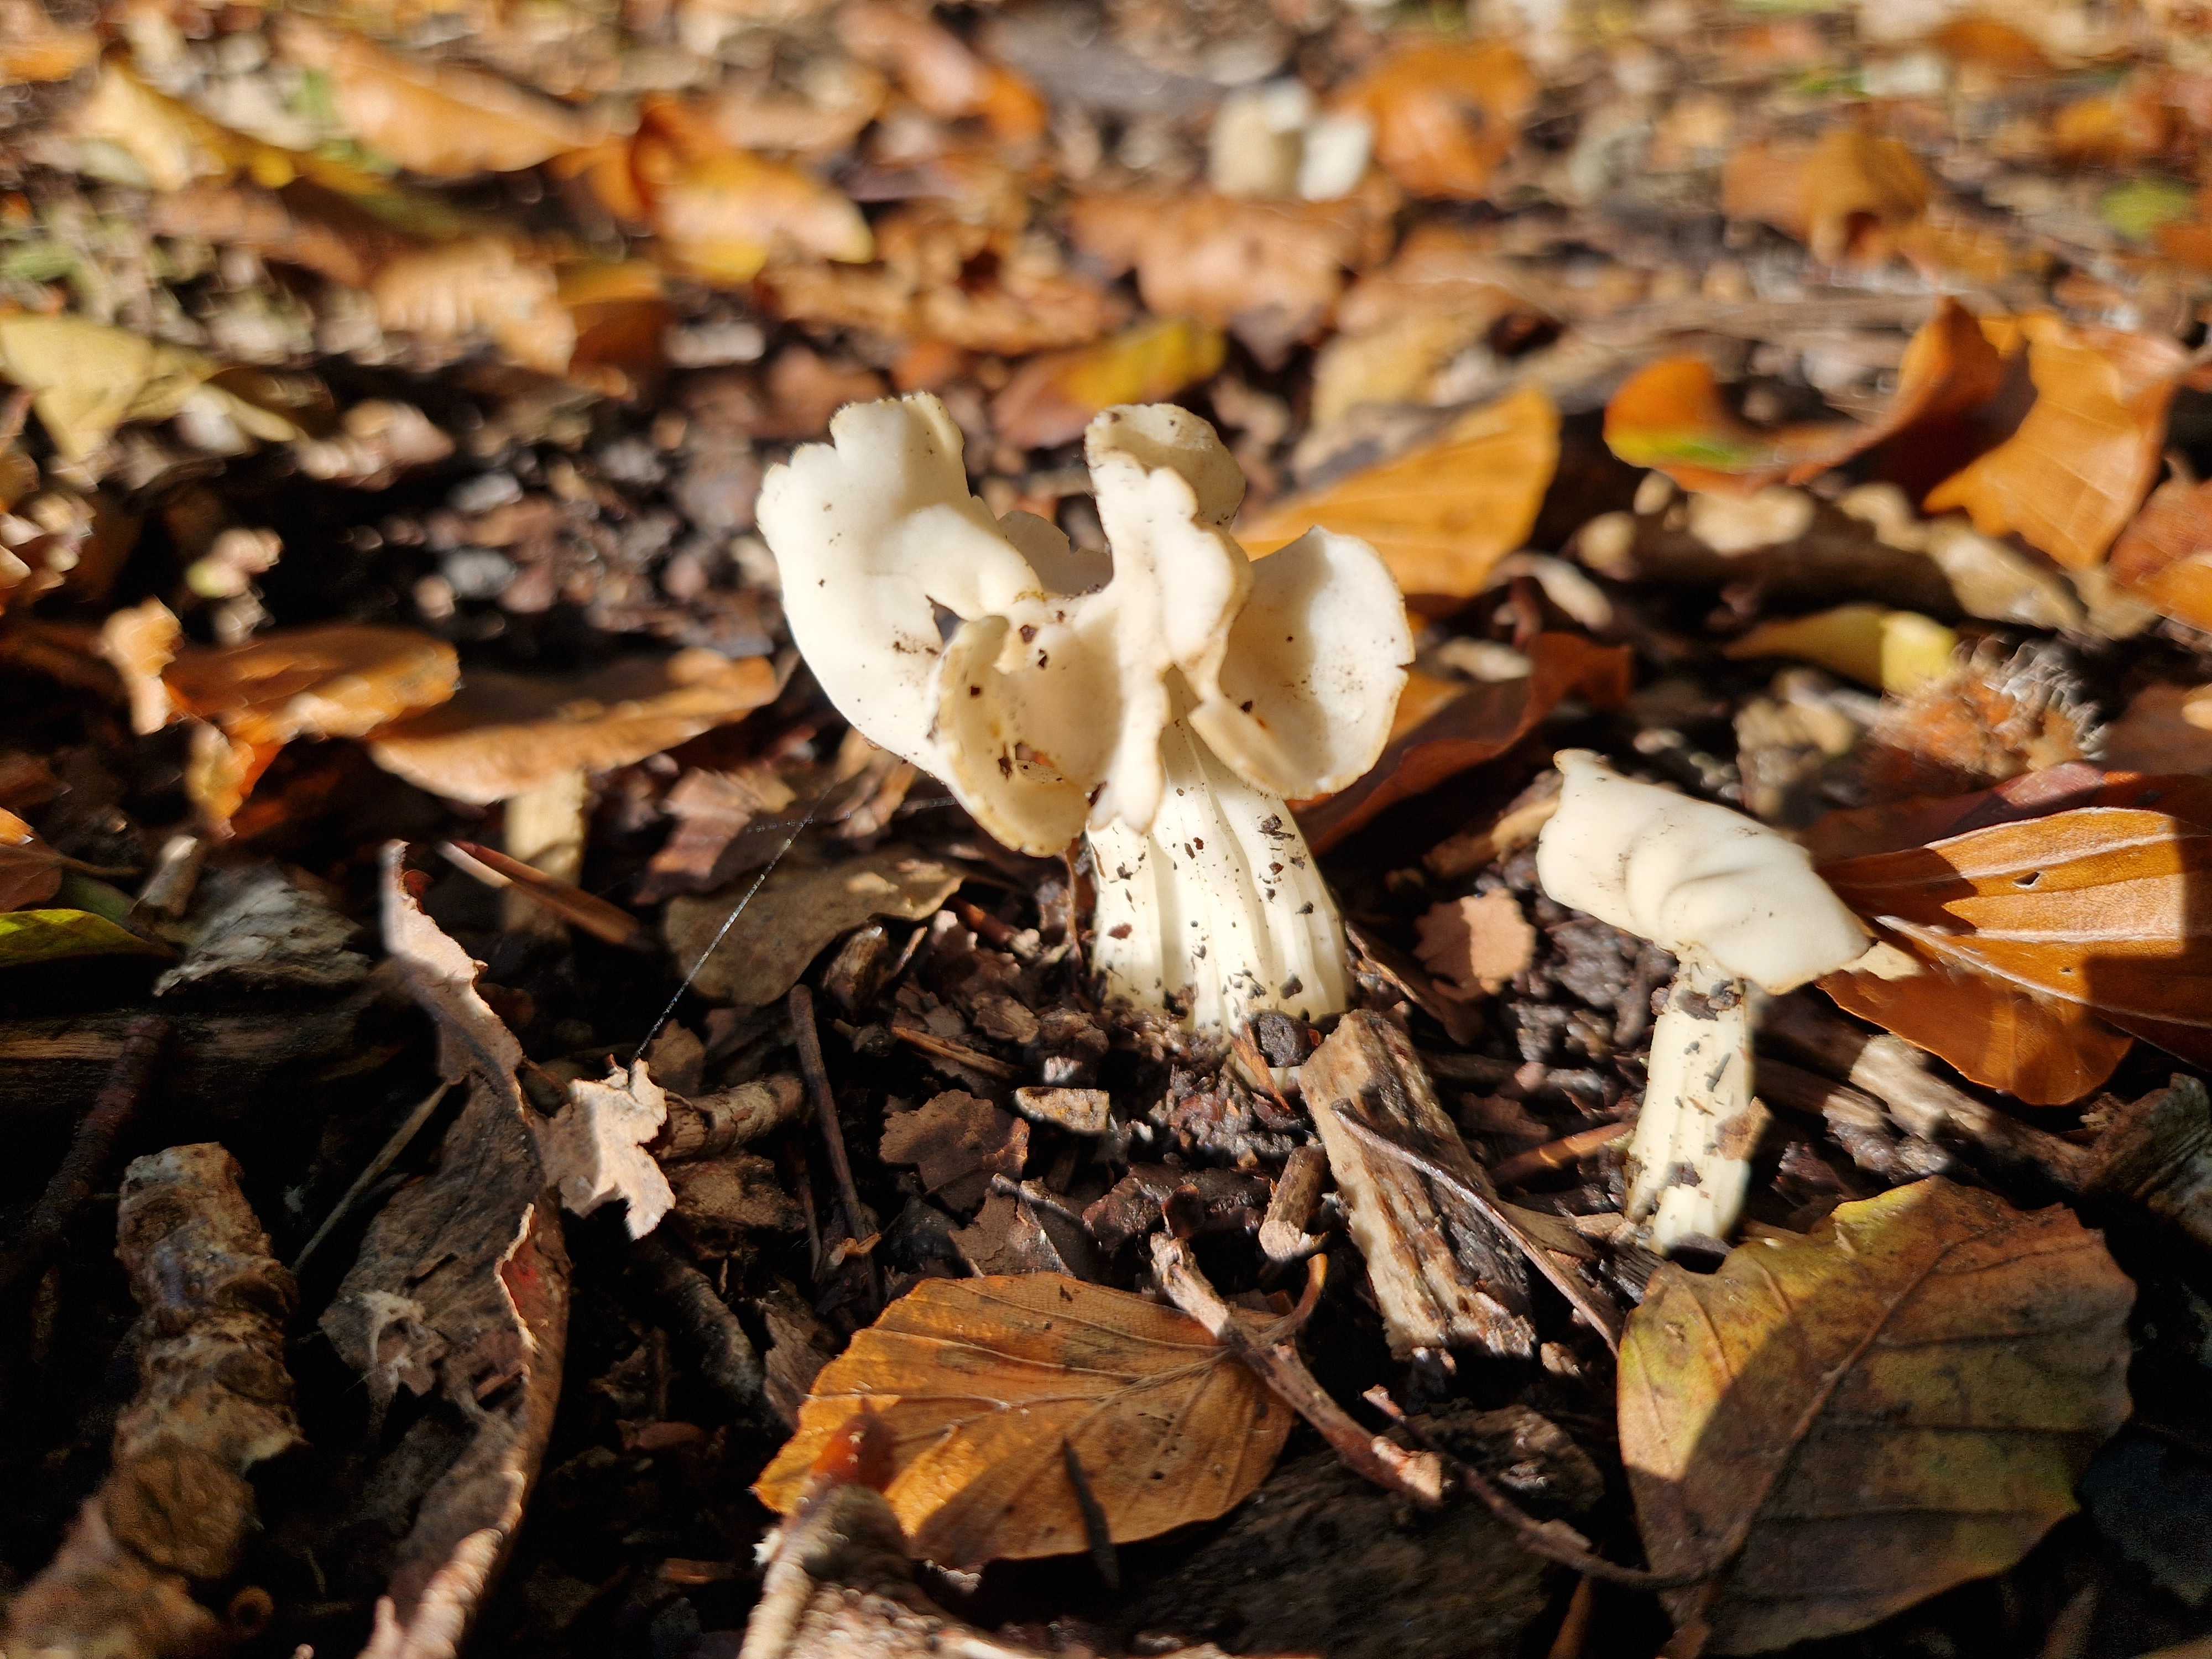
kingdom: Fungi
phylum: Ascomycota
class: Pezizomycetes
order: Pezizales
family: Helvellaceae
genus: Helvella
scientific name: Helvella crispa
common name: kruset foldhat
